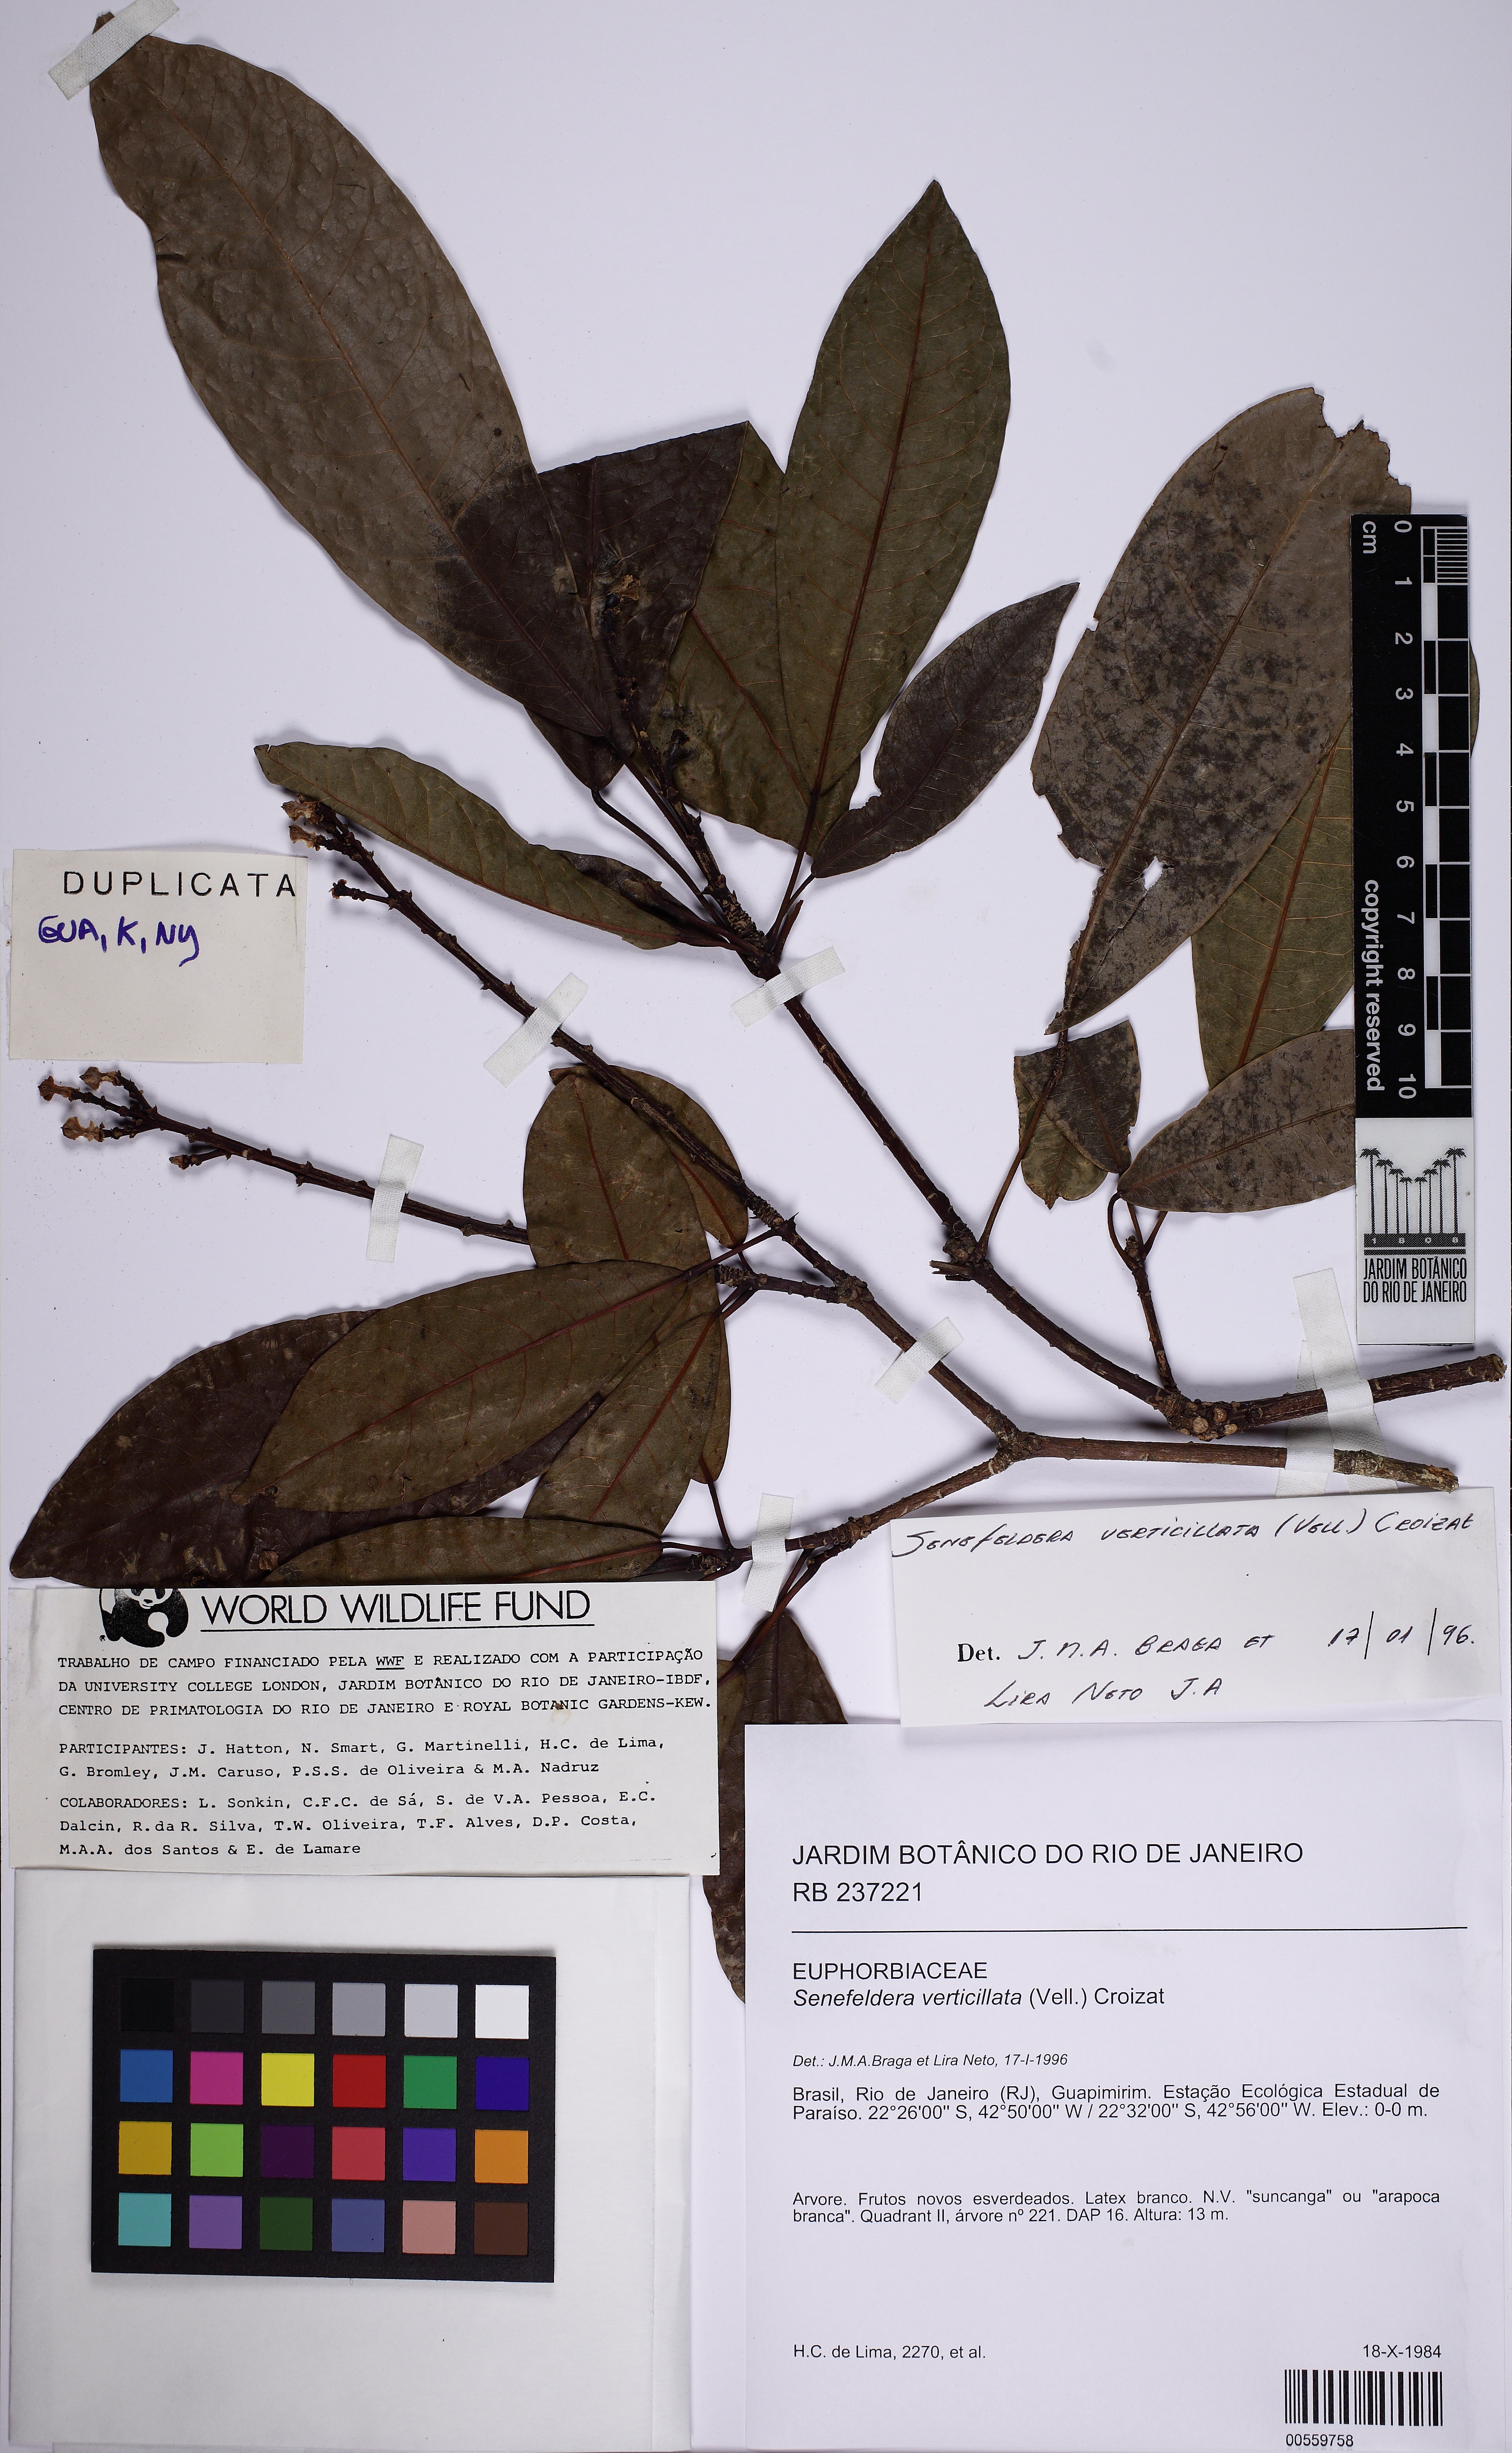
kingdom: Plantae
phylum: Tracheophyta
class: Magnoliopsida
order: Malpighiales
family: Euphorbiaceae
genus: Senefeldera
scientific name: Senefeldera verticillata
